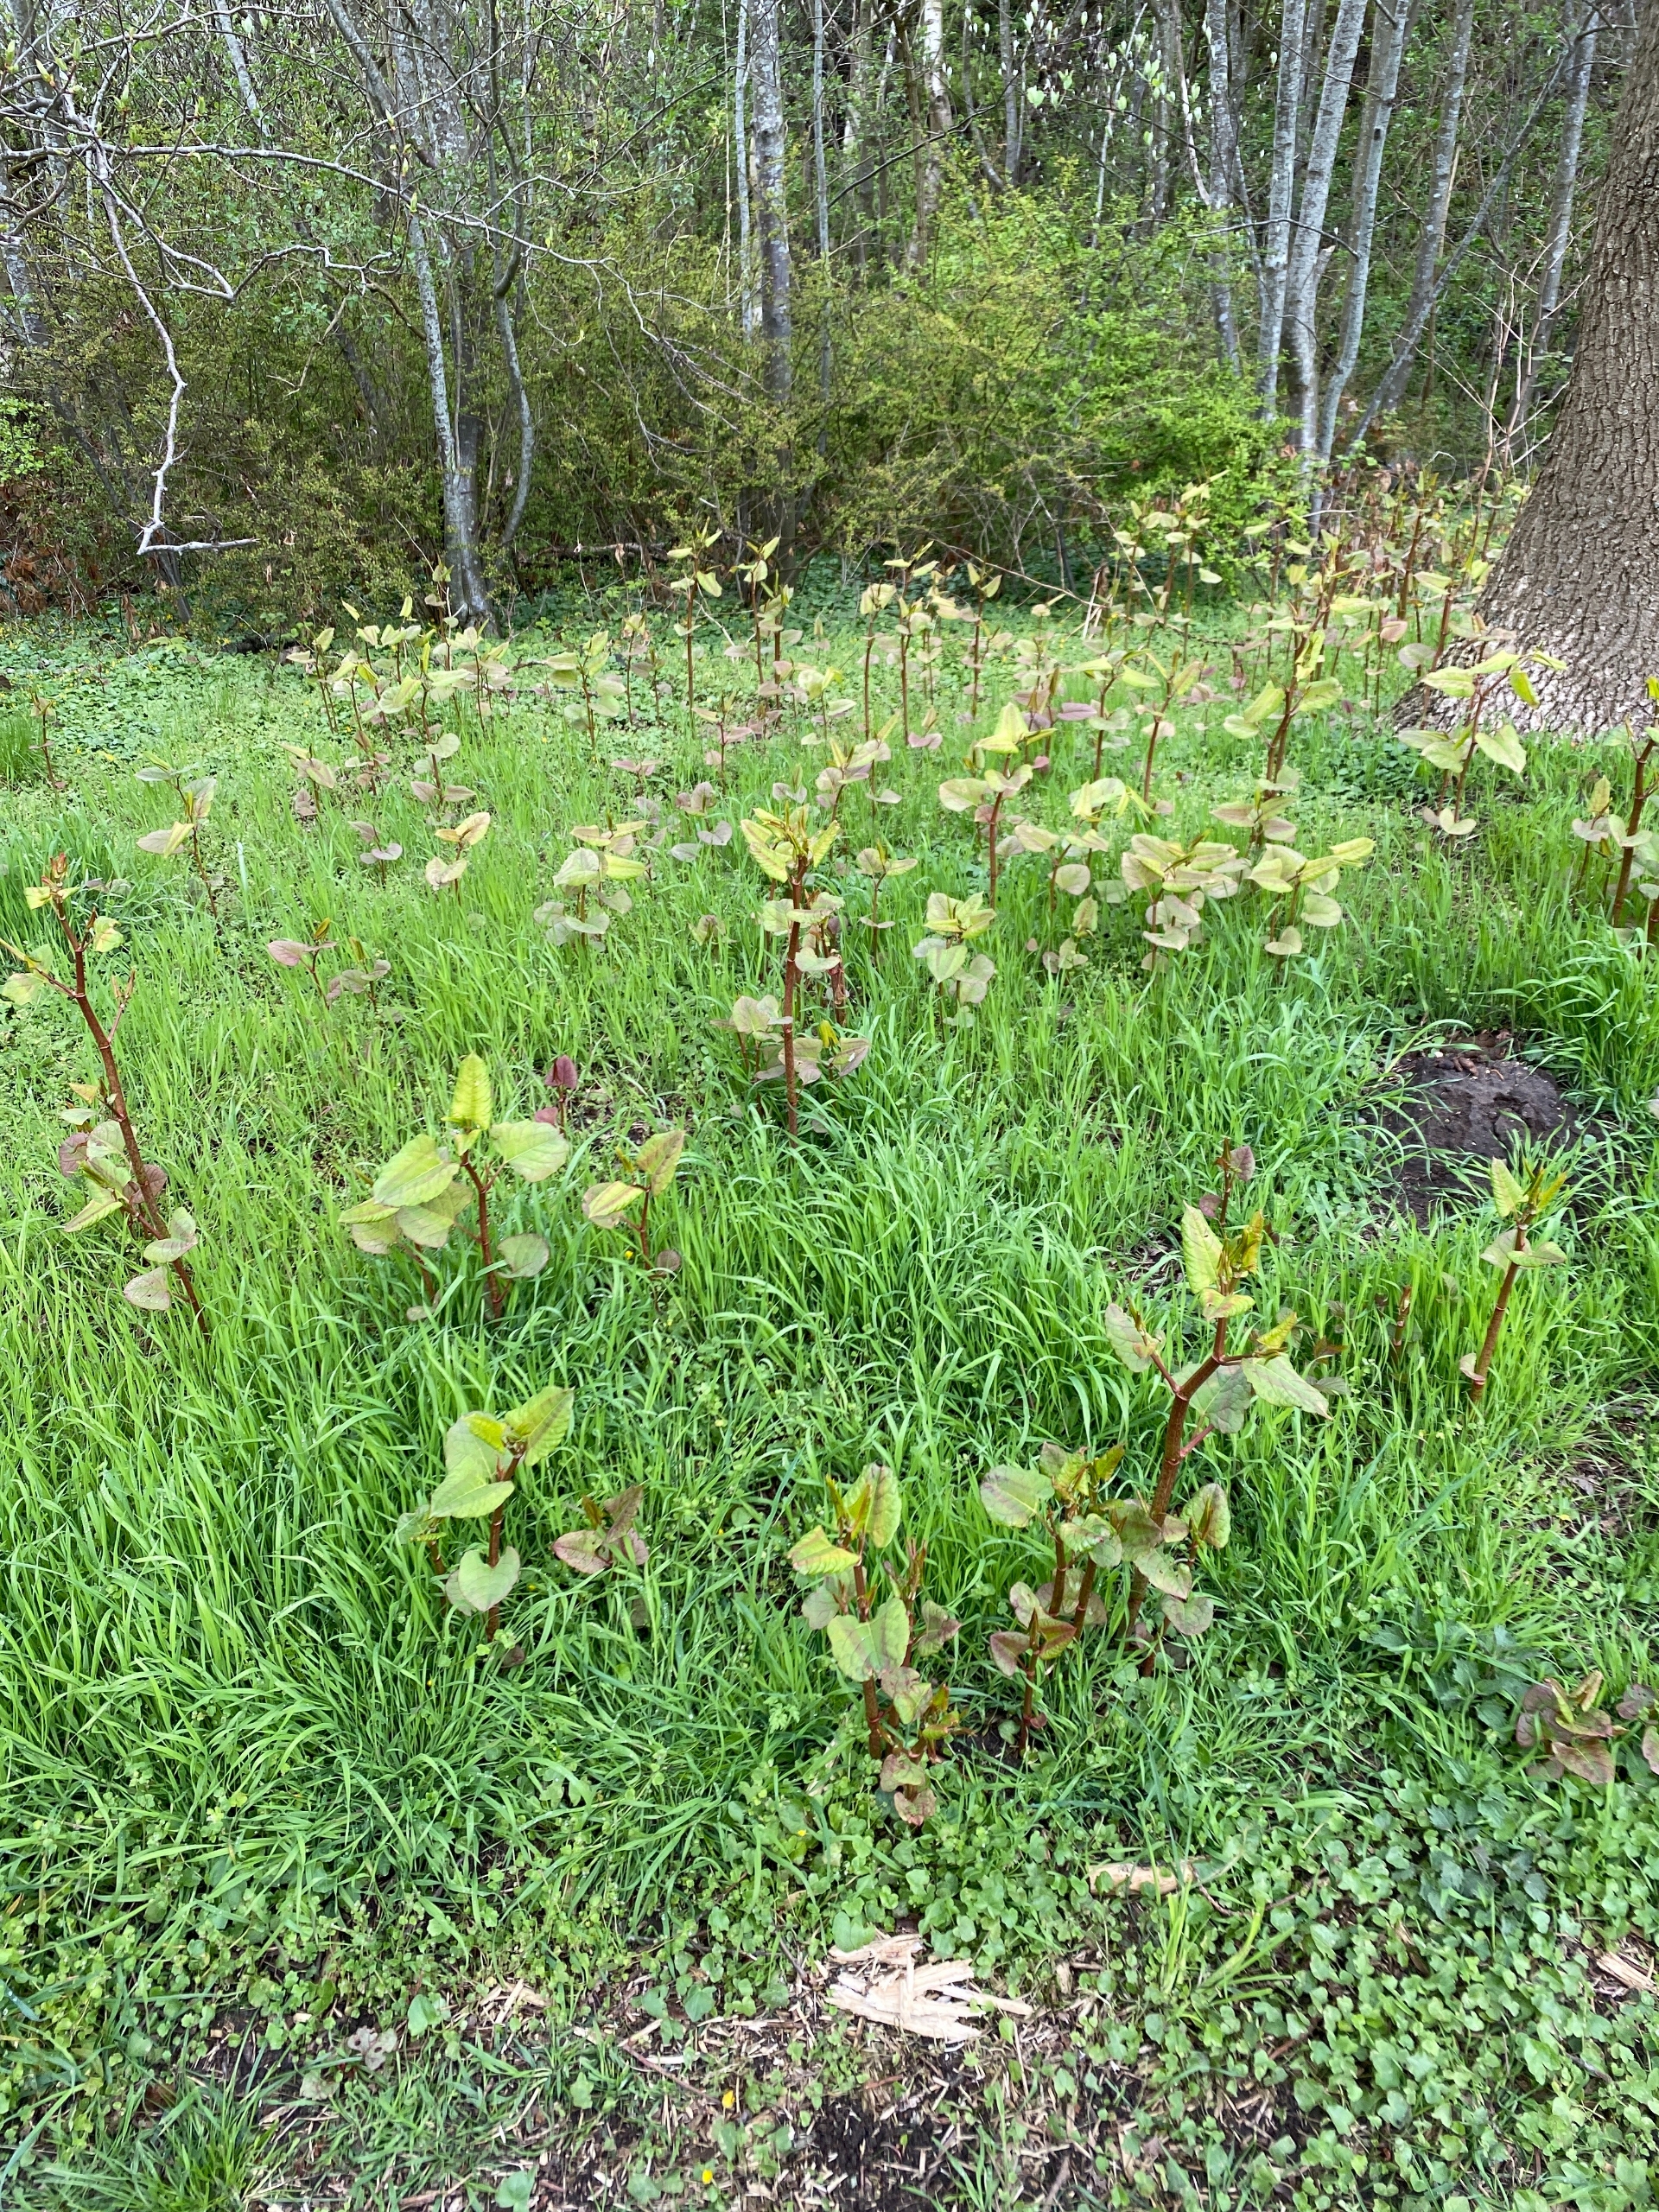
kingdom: Plantae
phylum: Tracheophyta
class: Magnoliopsida
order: Caryophyllales
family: Polygonaceae
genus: Reynoutria
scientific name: Reynoutria japonica
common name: Japan-pileurt
